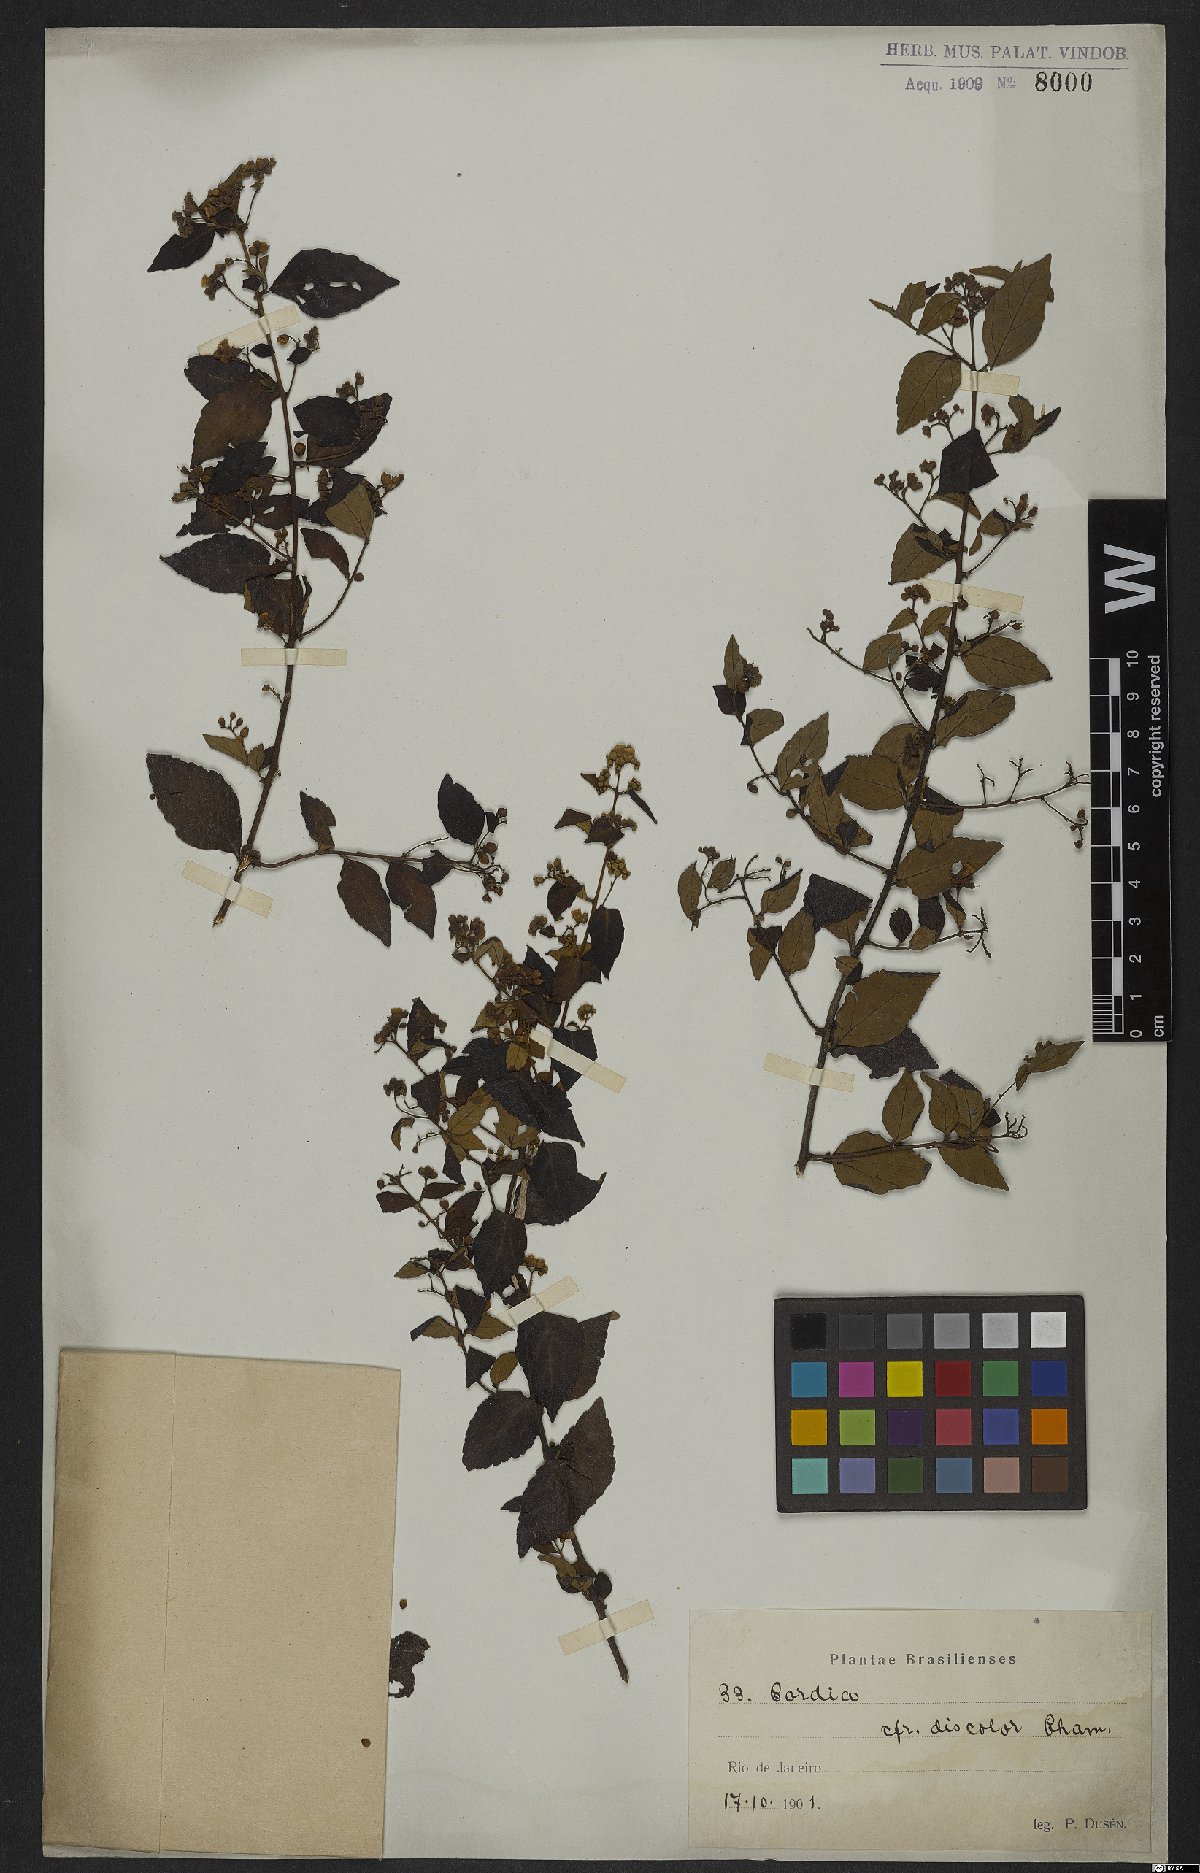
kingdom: Plantae
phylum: Tracheophyta
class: Magnoliopsida
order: Boraginales
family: Cordiaceae
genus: Varronia
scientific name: Varronia discolor
